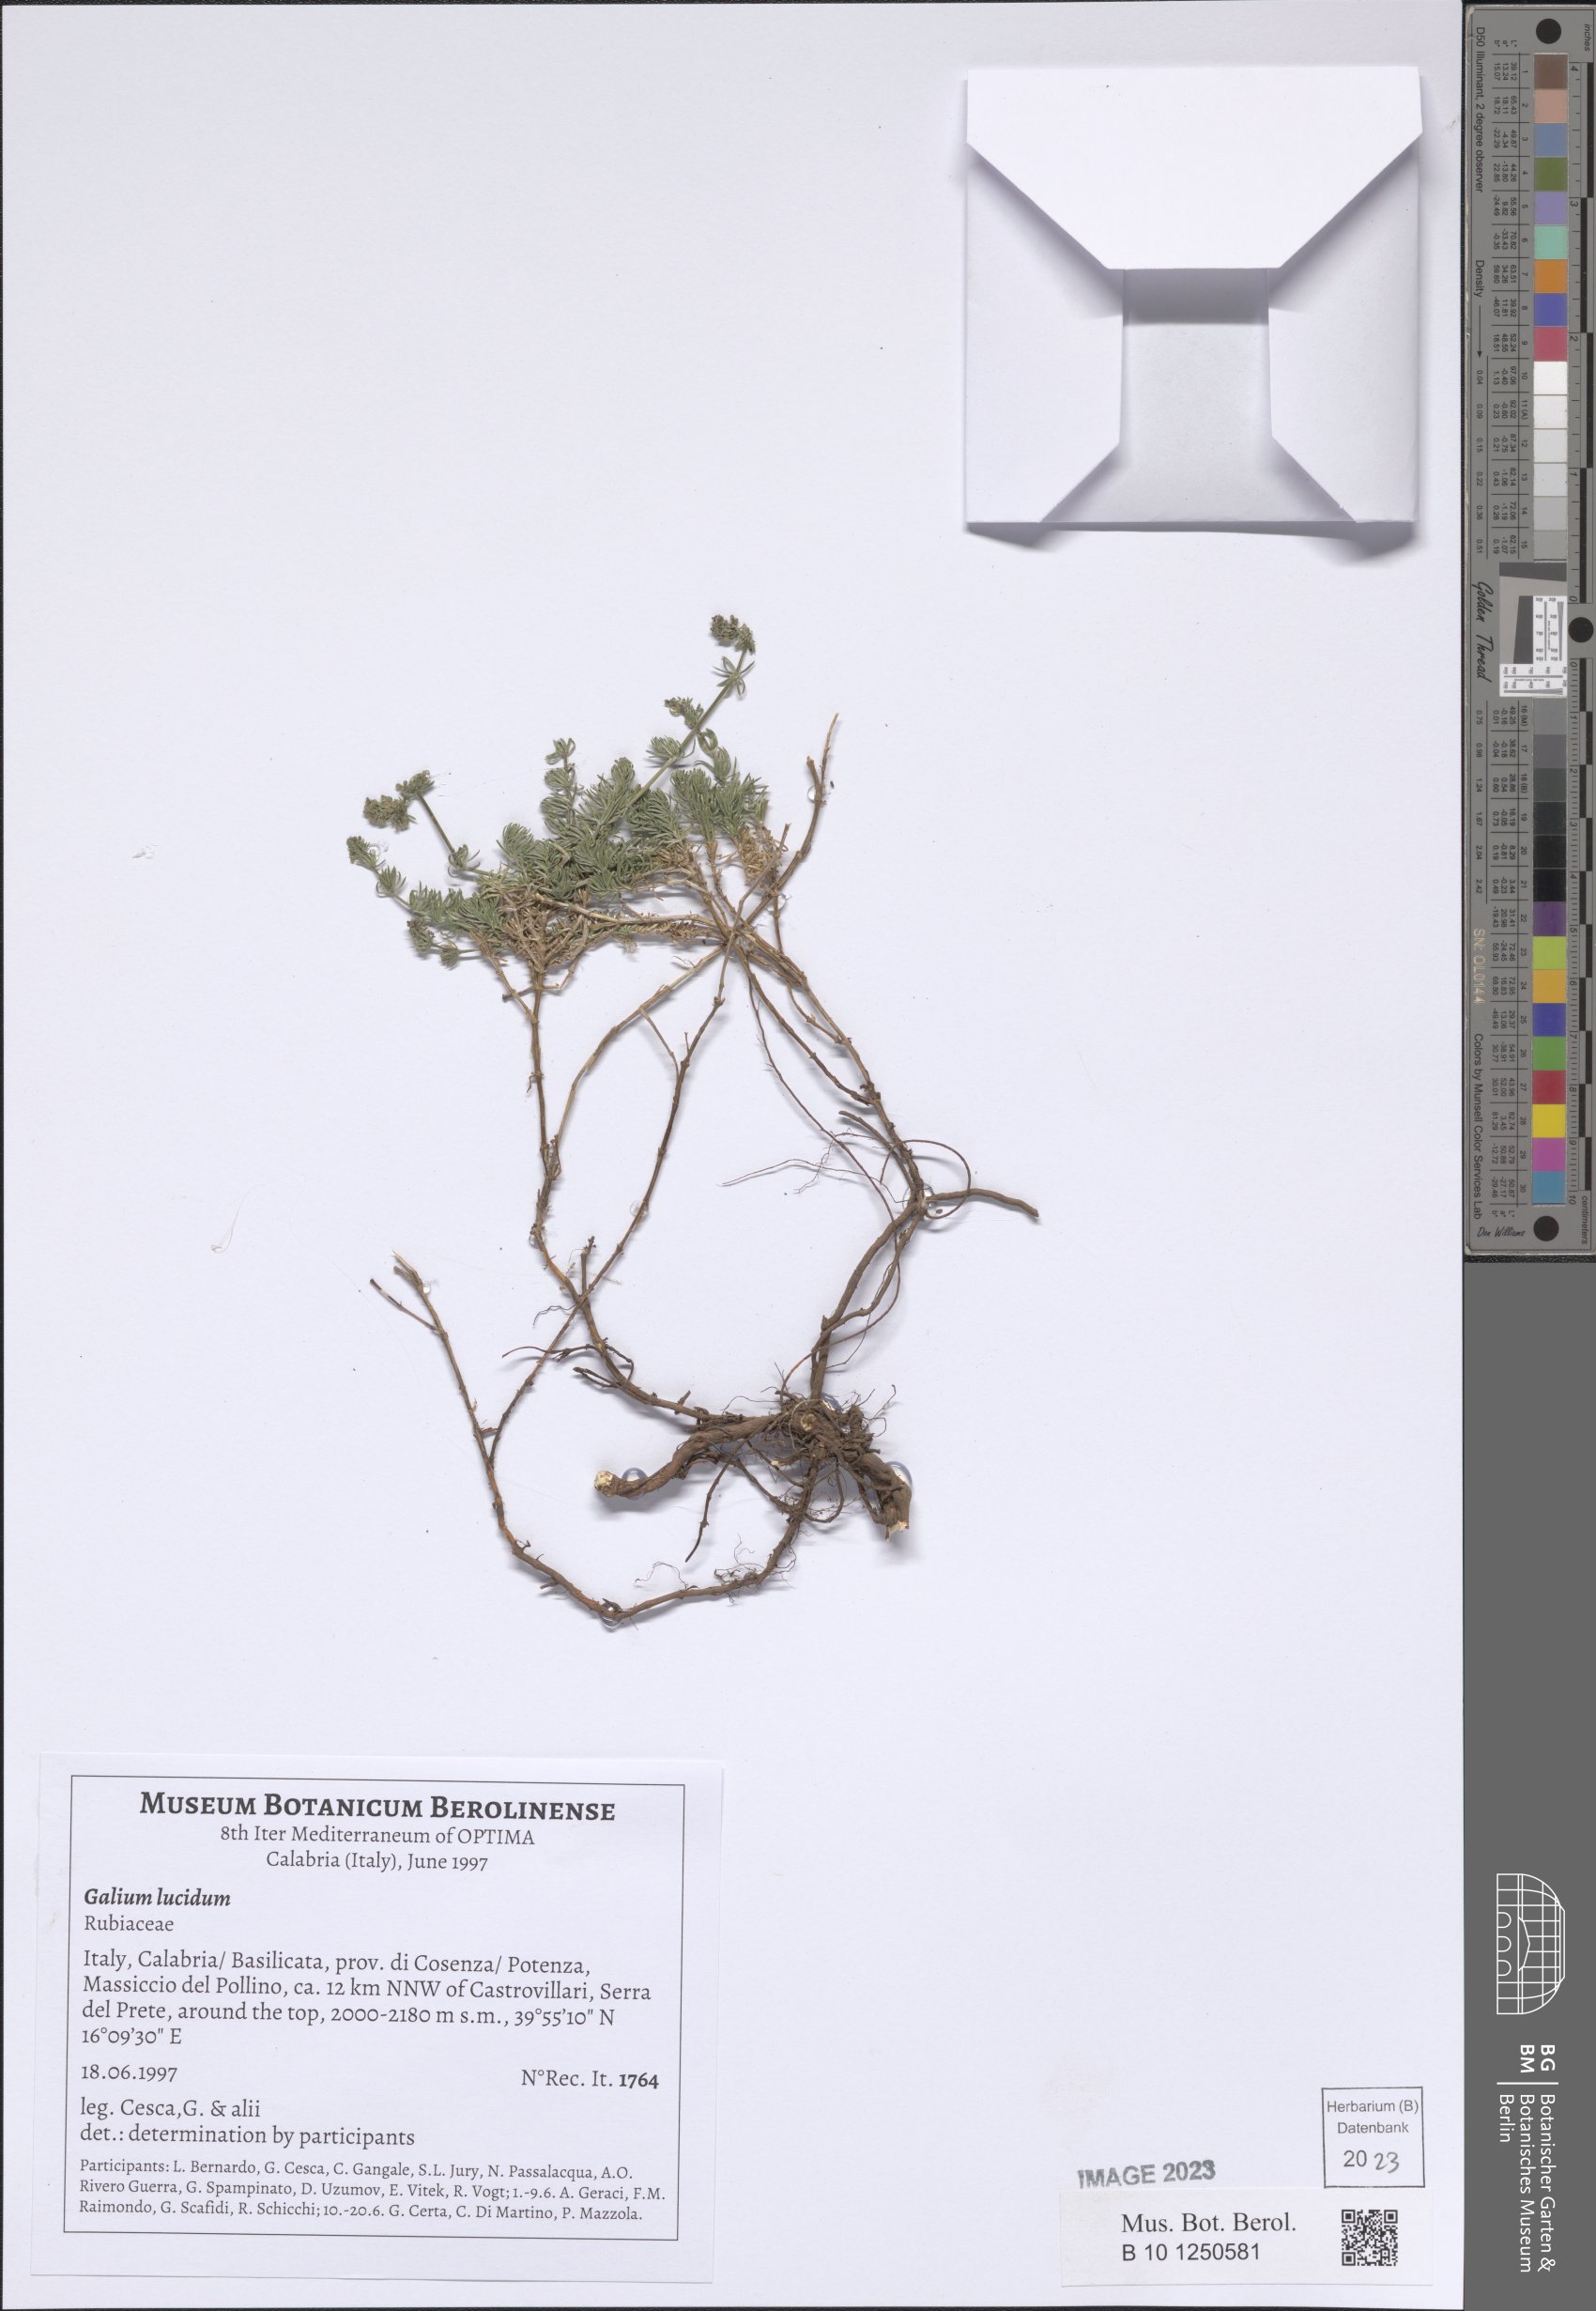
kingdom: Plantae
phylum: Tracheophyta
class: Magnoliopsida
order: Gentianales
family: Rubiaceae
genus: Galium
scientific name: Galium lucidum
